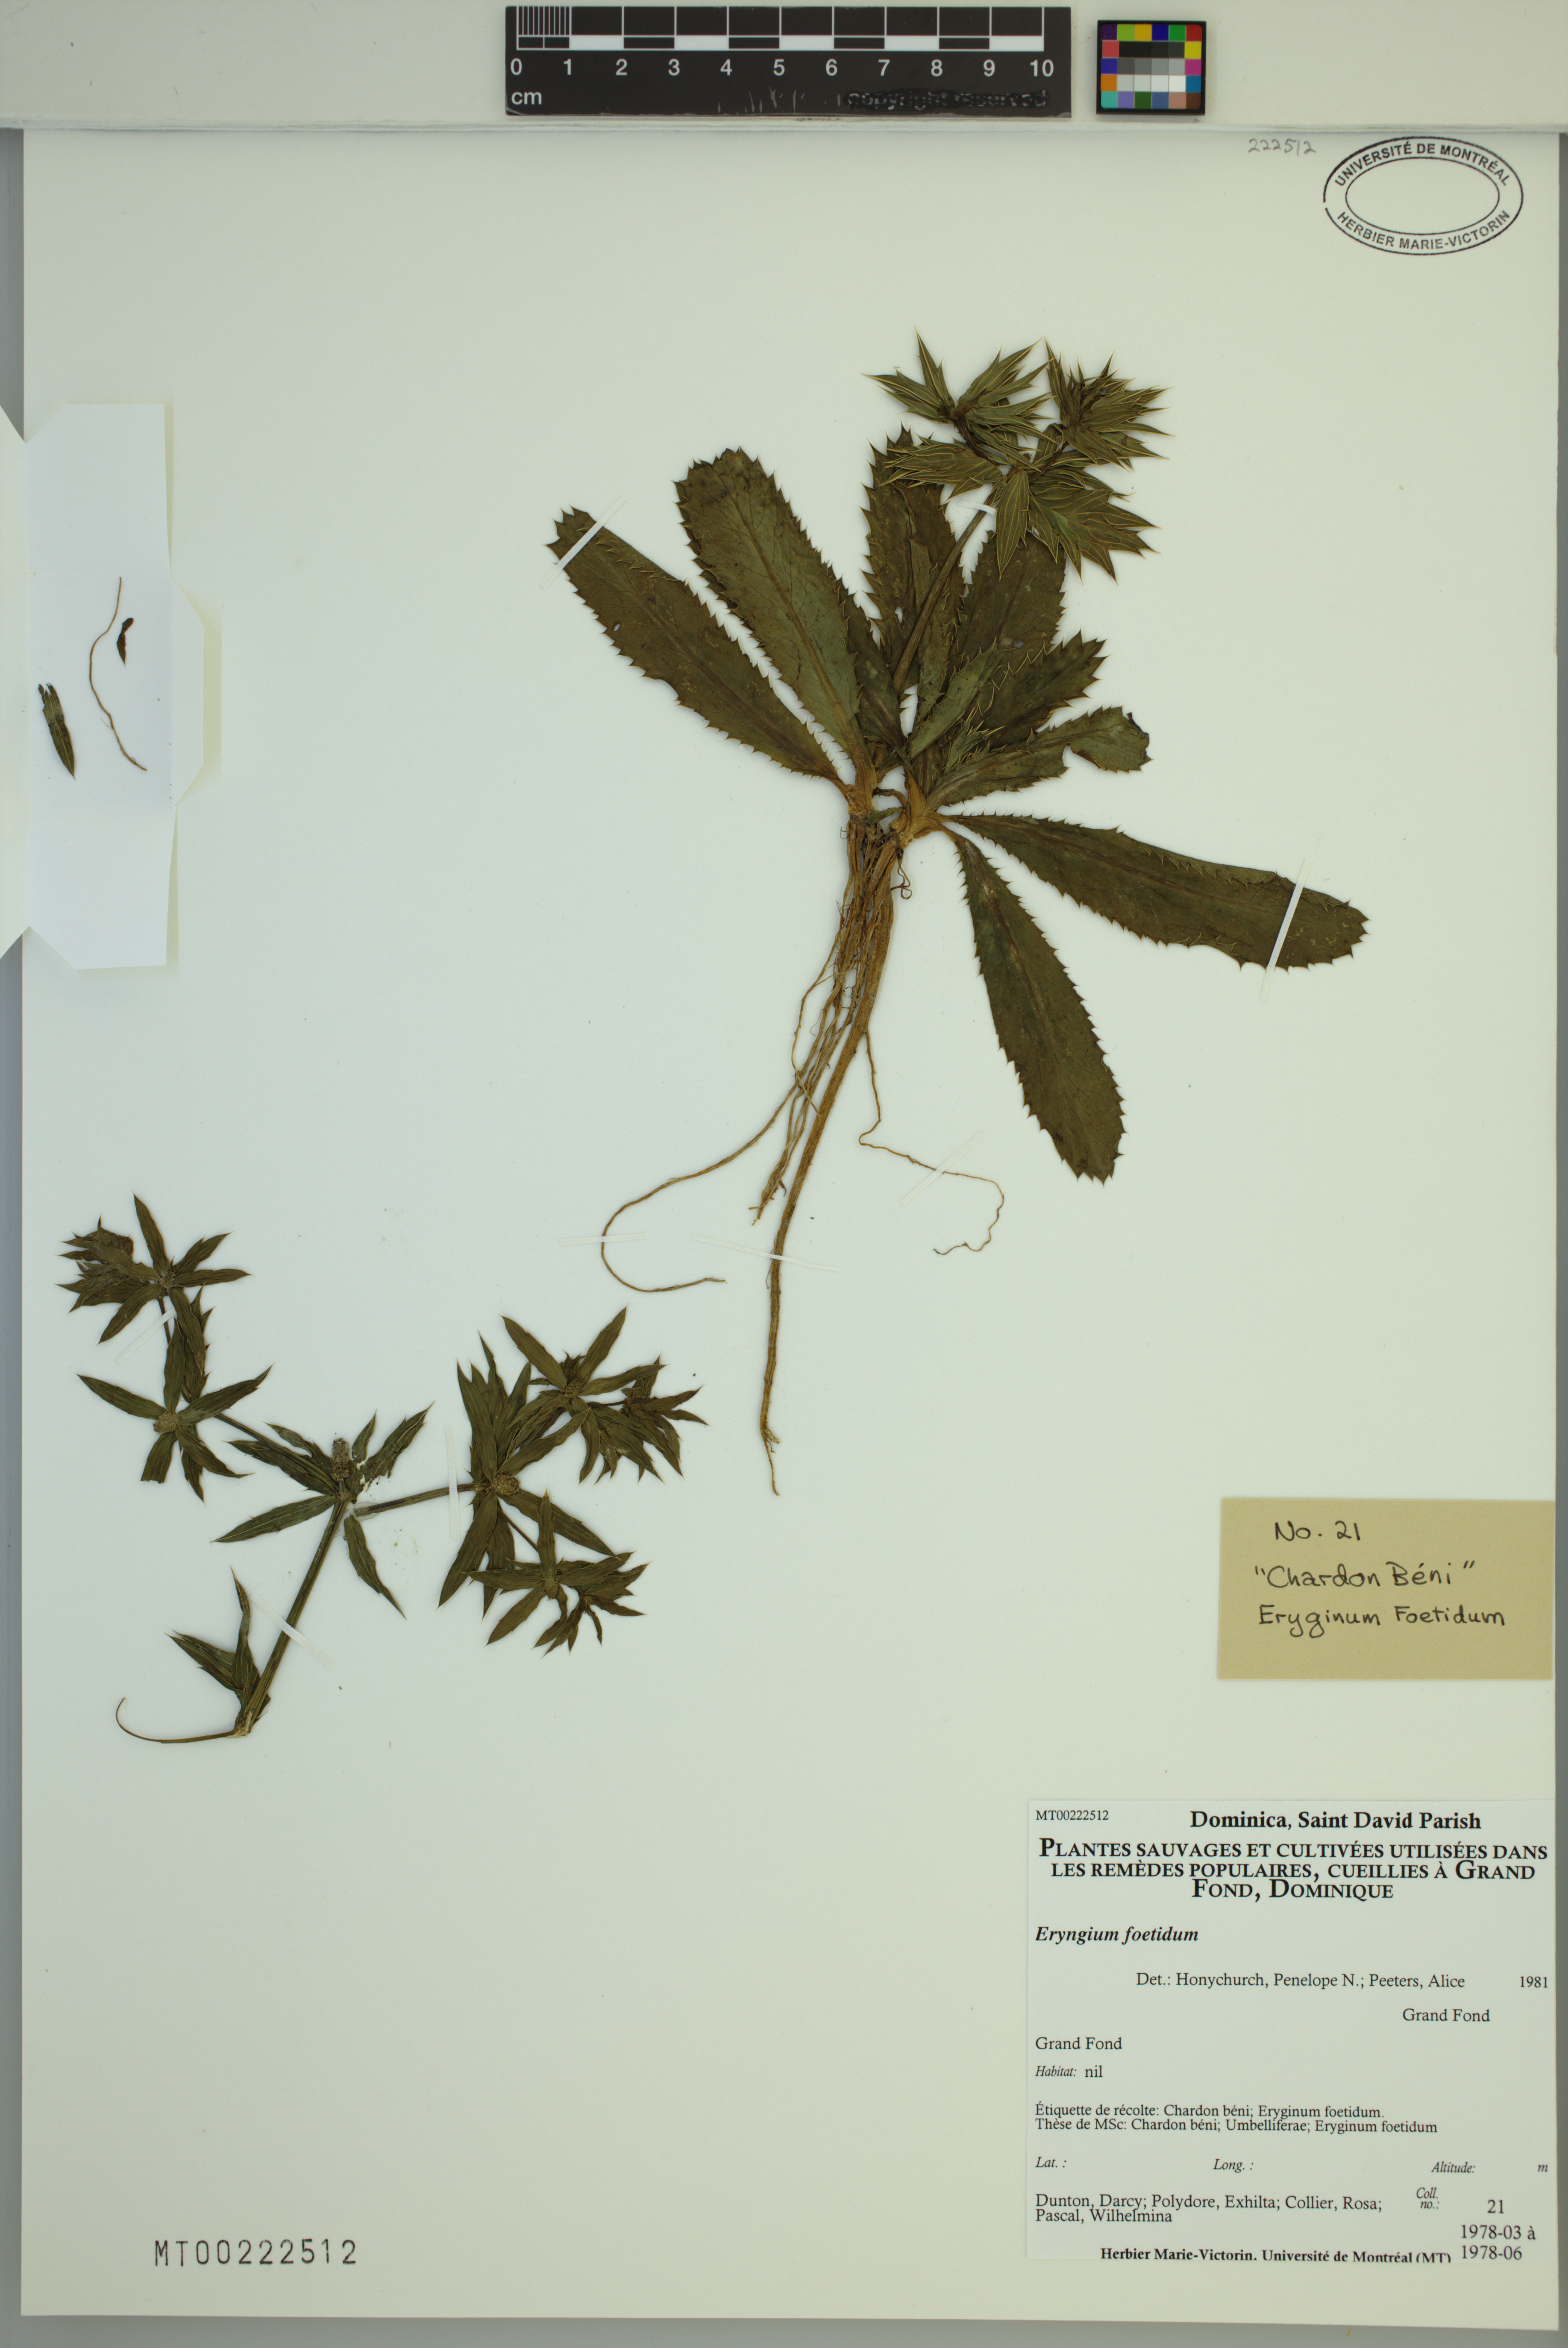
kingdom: Plantae
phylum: Tracheophyta
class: Magnoliopsida
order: Apiales
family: Apiaceae
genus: Eryngium
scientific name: Eryngium foetidum
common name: Fitweed
